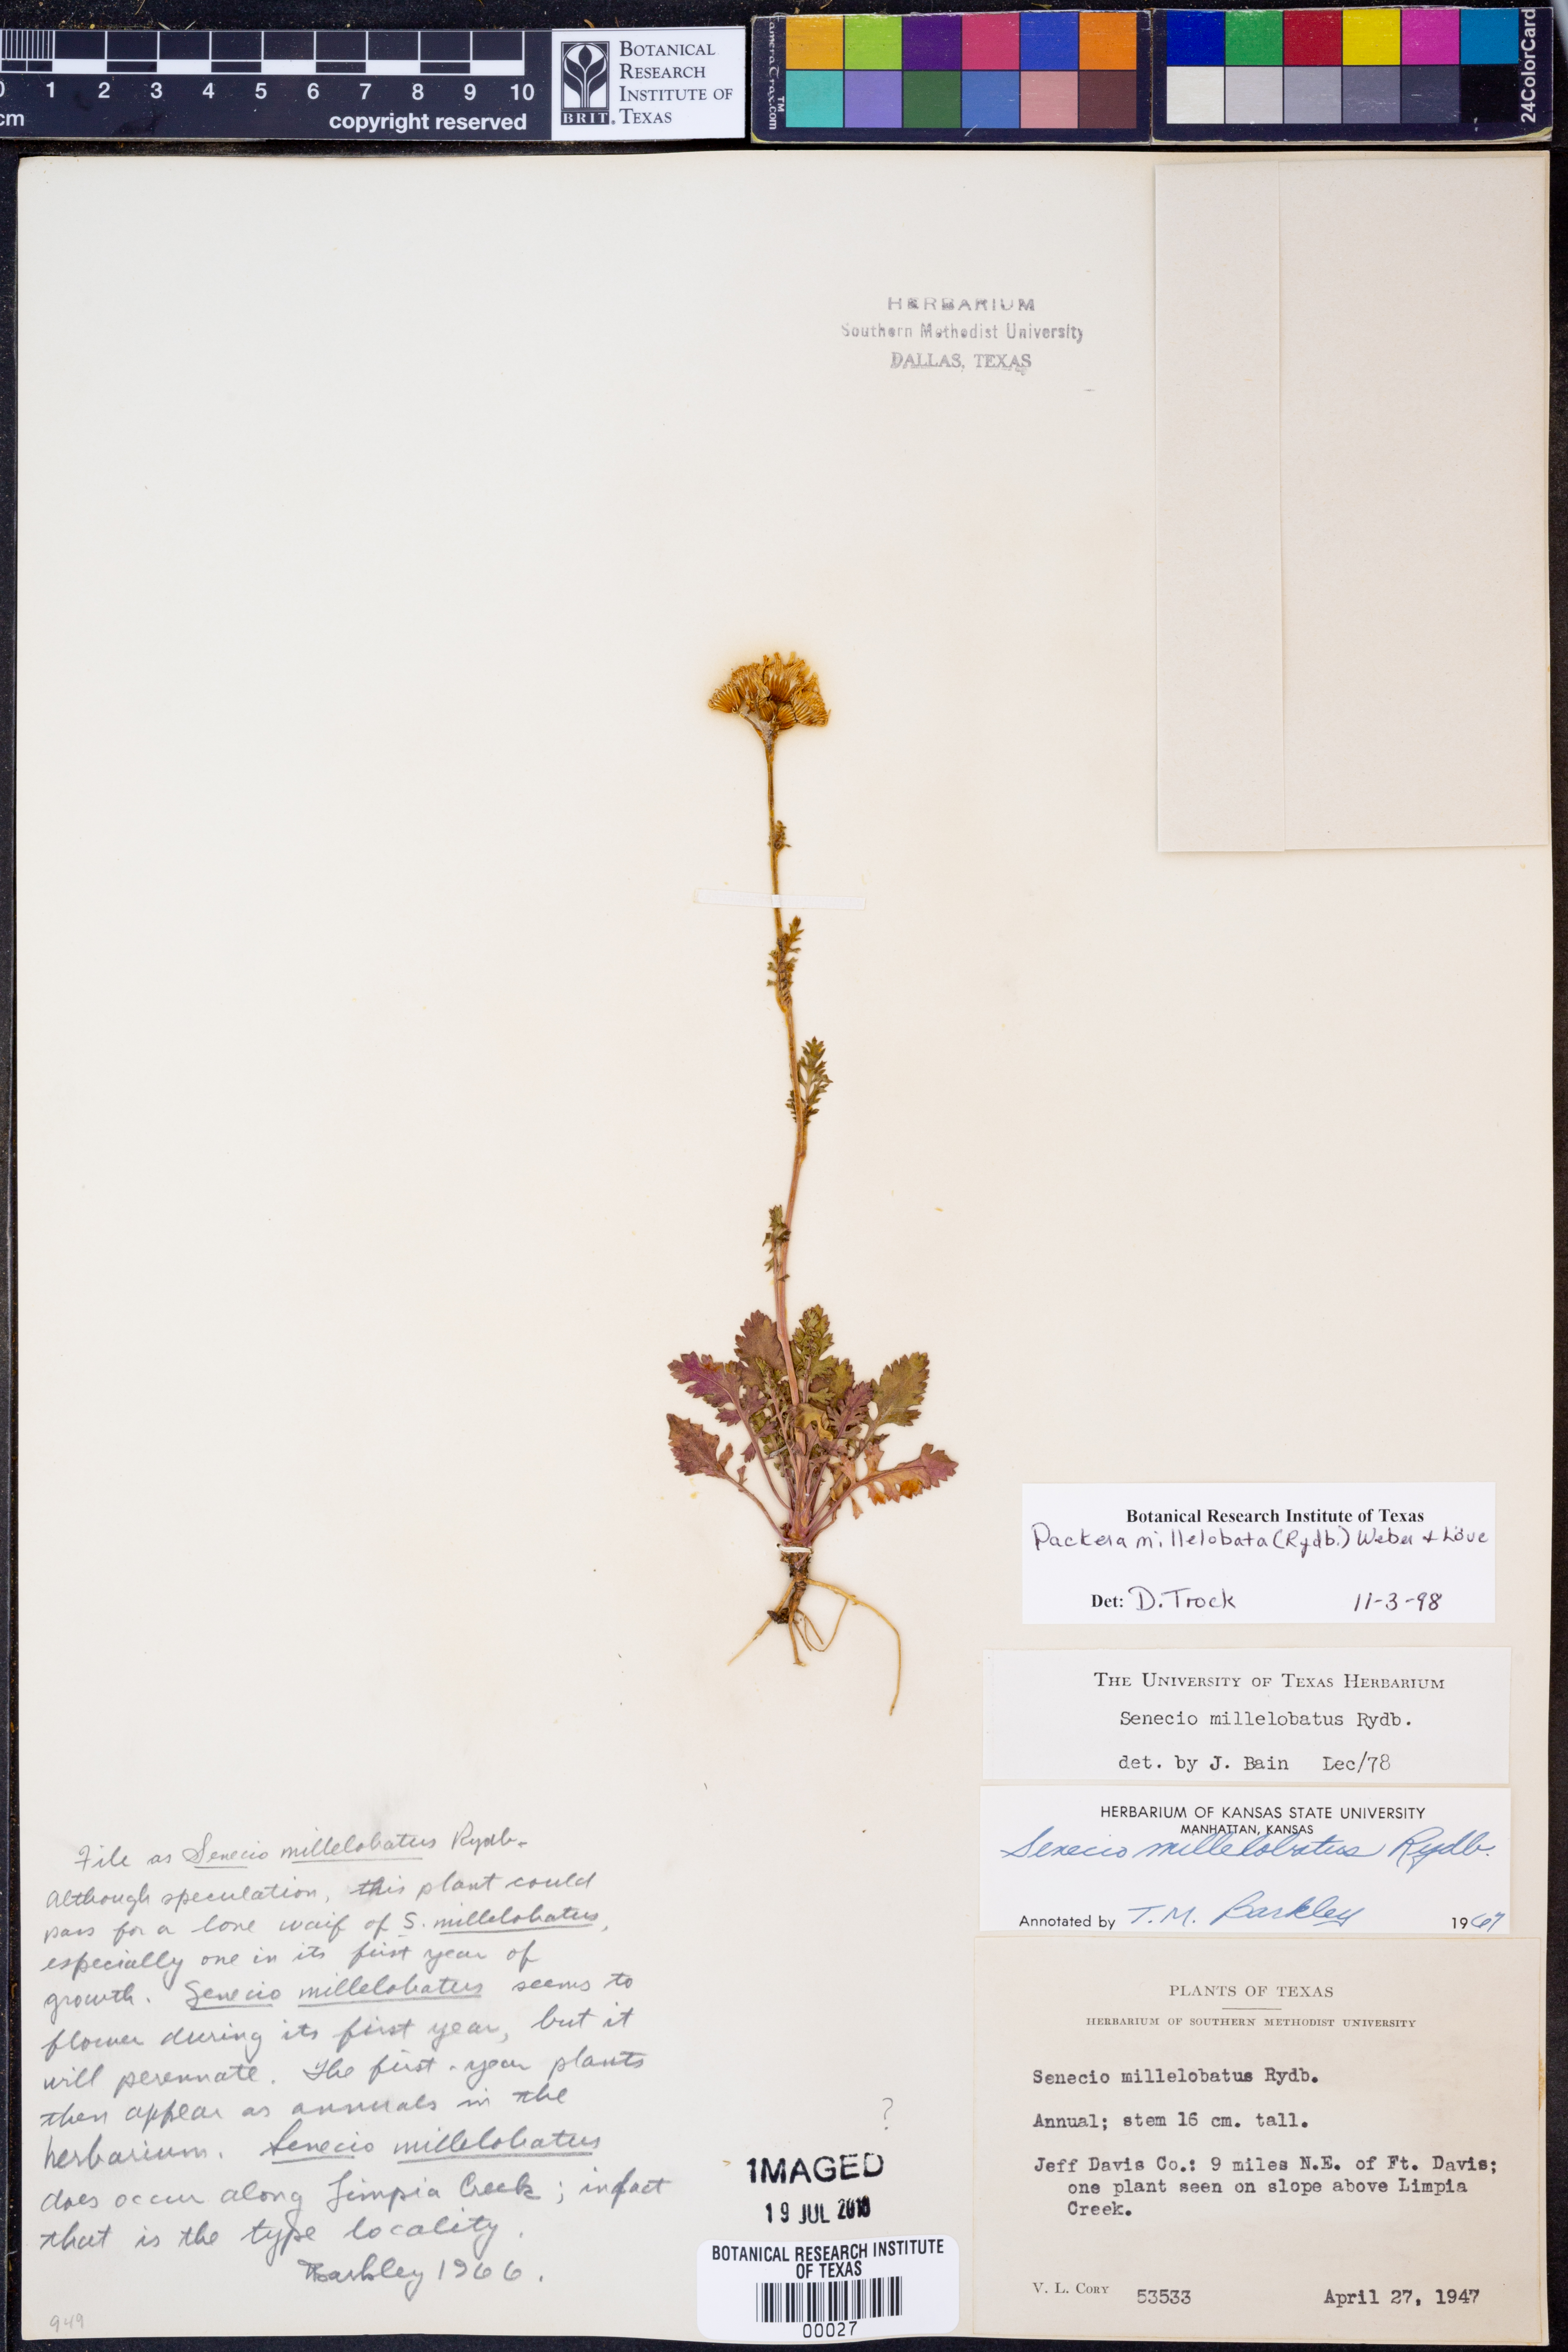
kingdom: Plantae
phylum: Tracheophyta
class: Magnoliopsida
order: Asterales
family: Asteraceae
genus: Packera
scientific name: Packera millelobata
